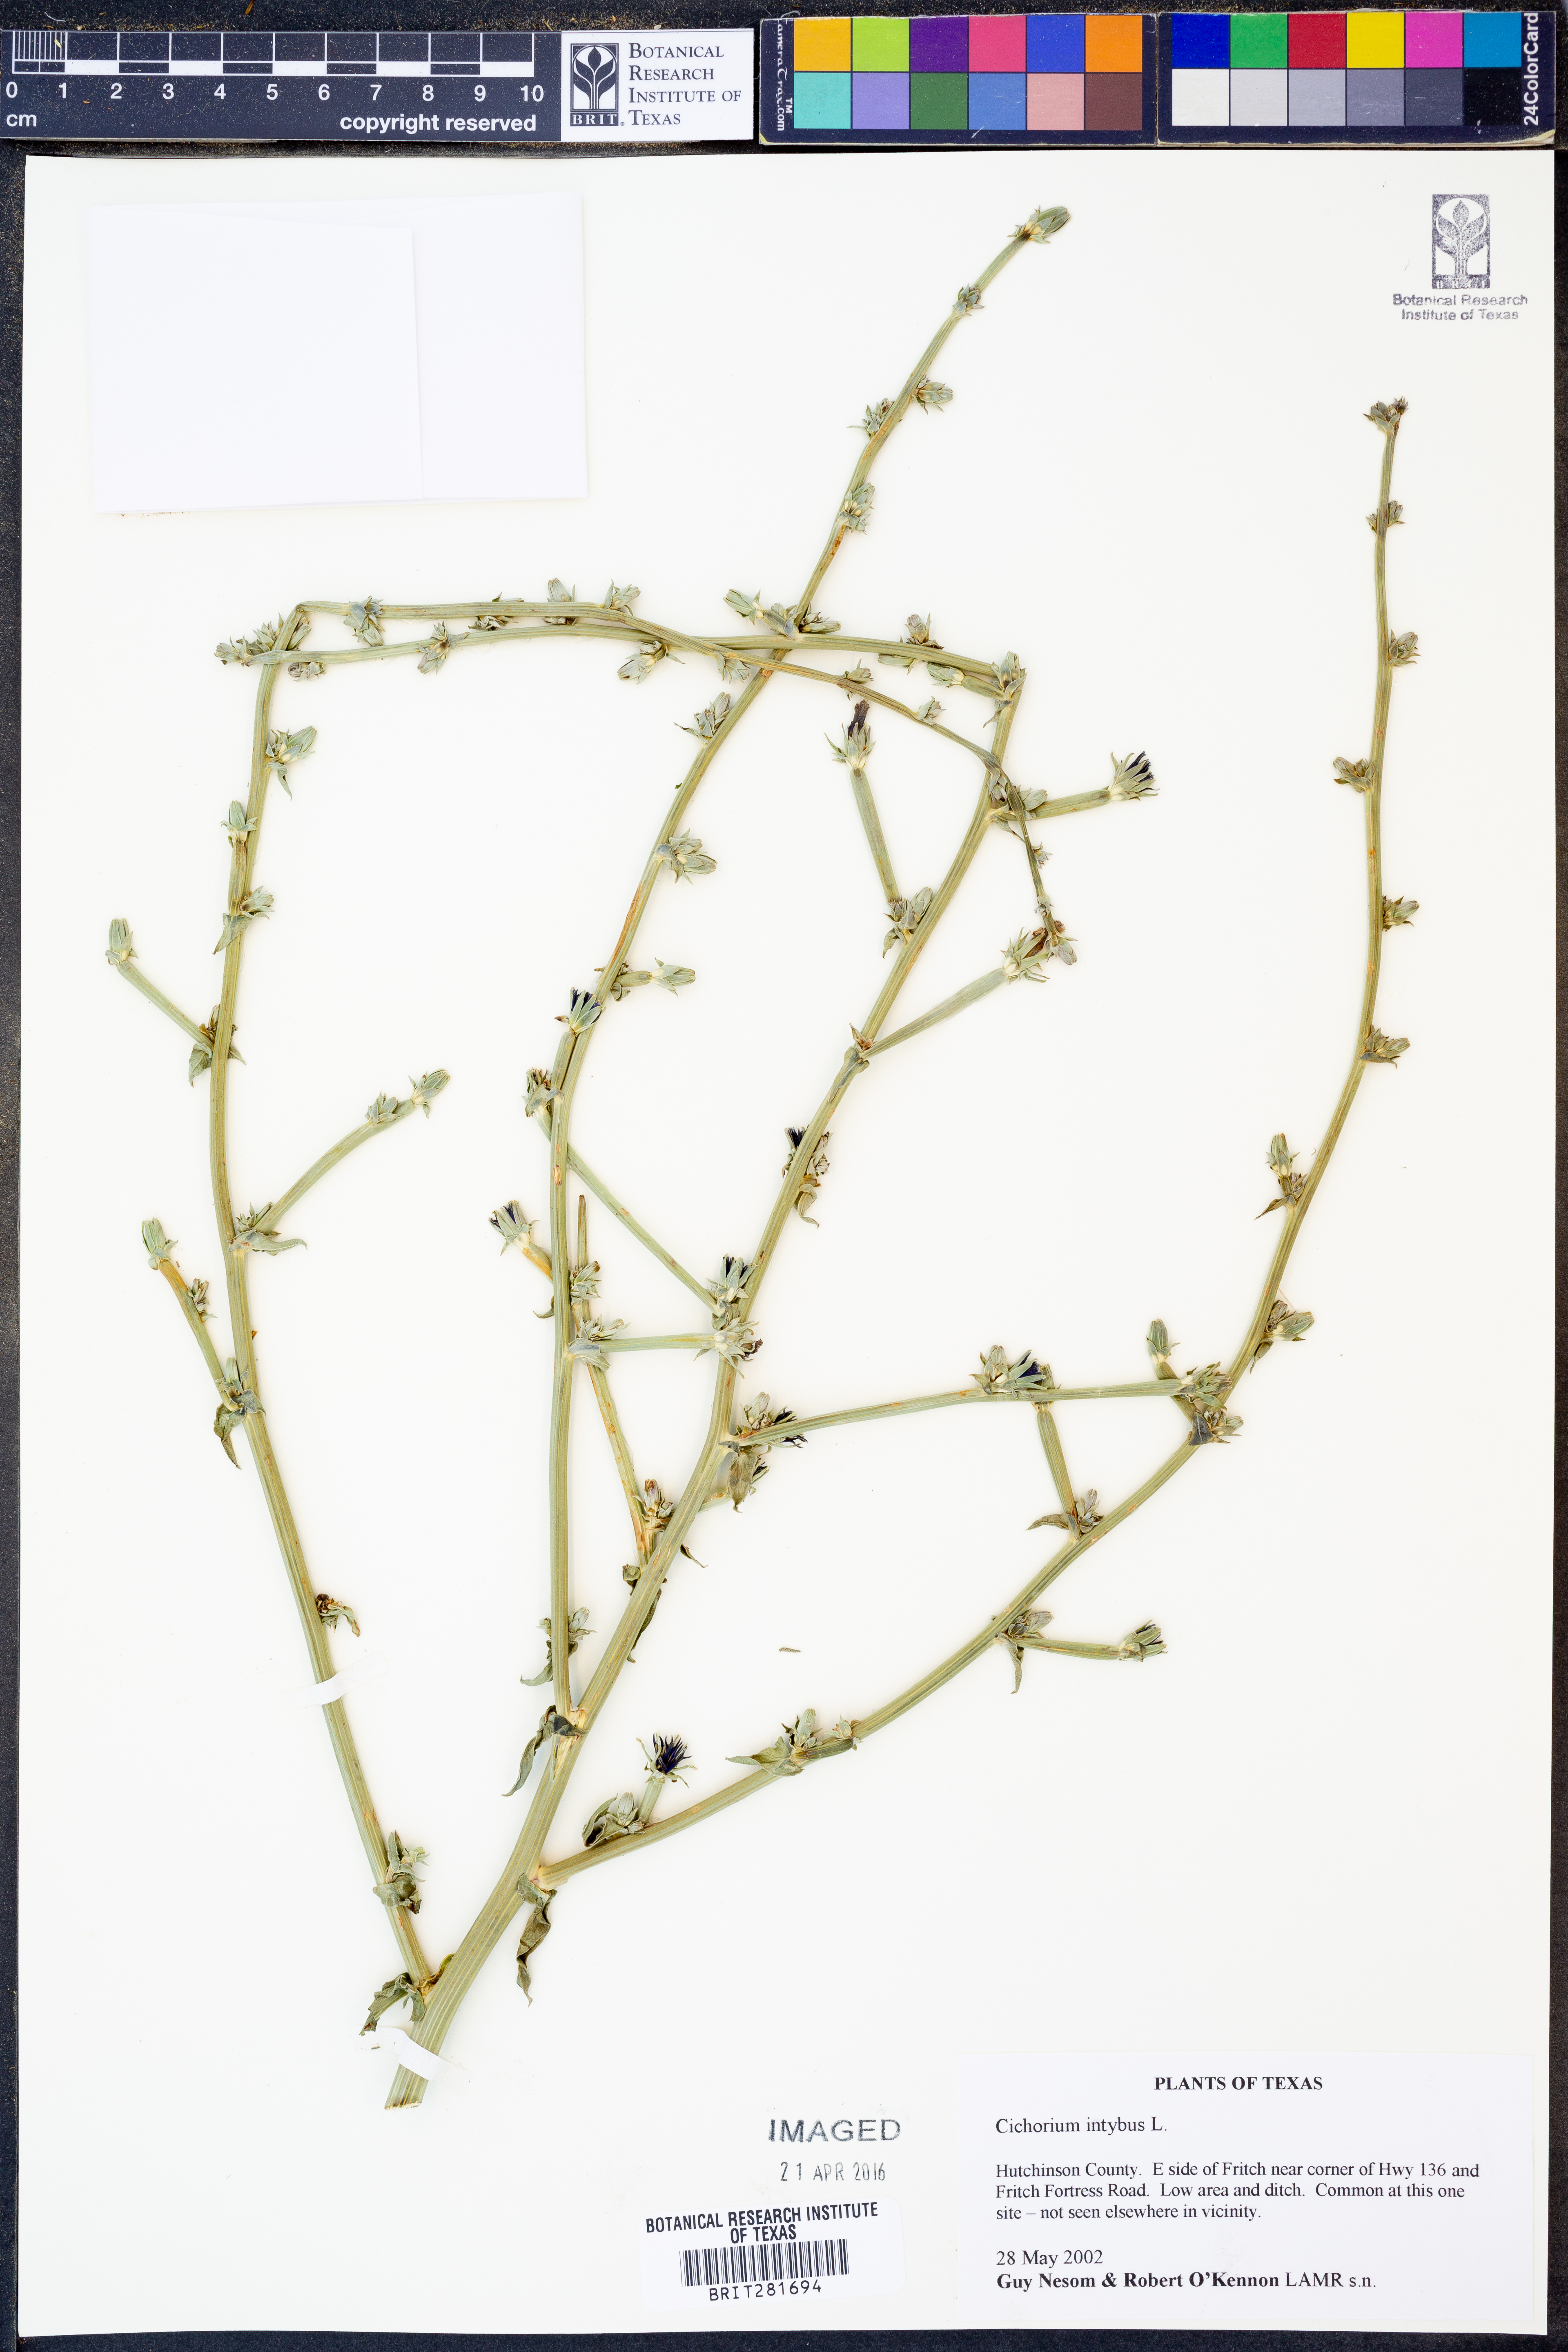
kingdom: Plantae
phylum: Tracheophyta
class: Magnoliopsida
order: Asterales
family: Asteraceae
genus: Cichorium
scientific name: Cichorium intybus
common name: Chicory
